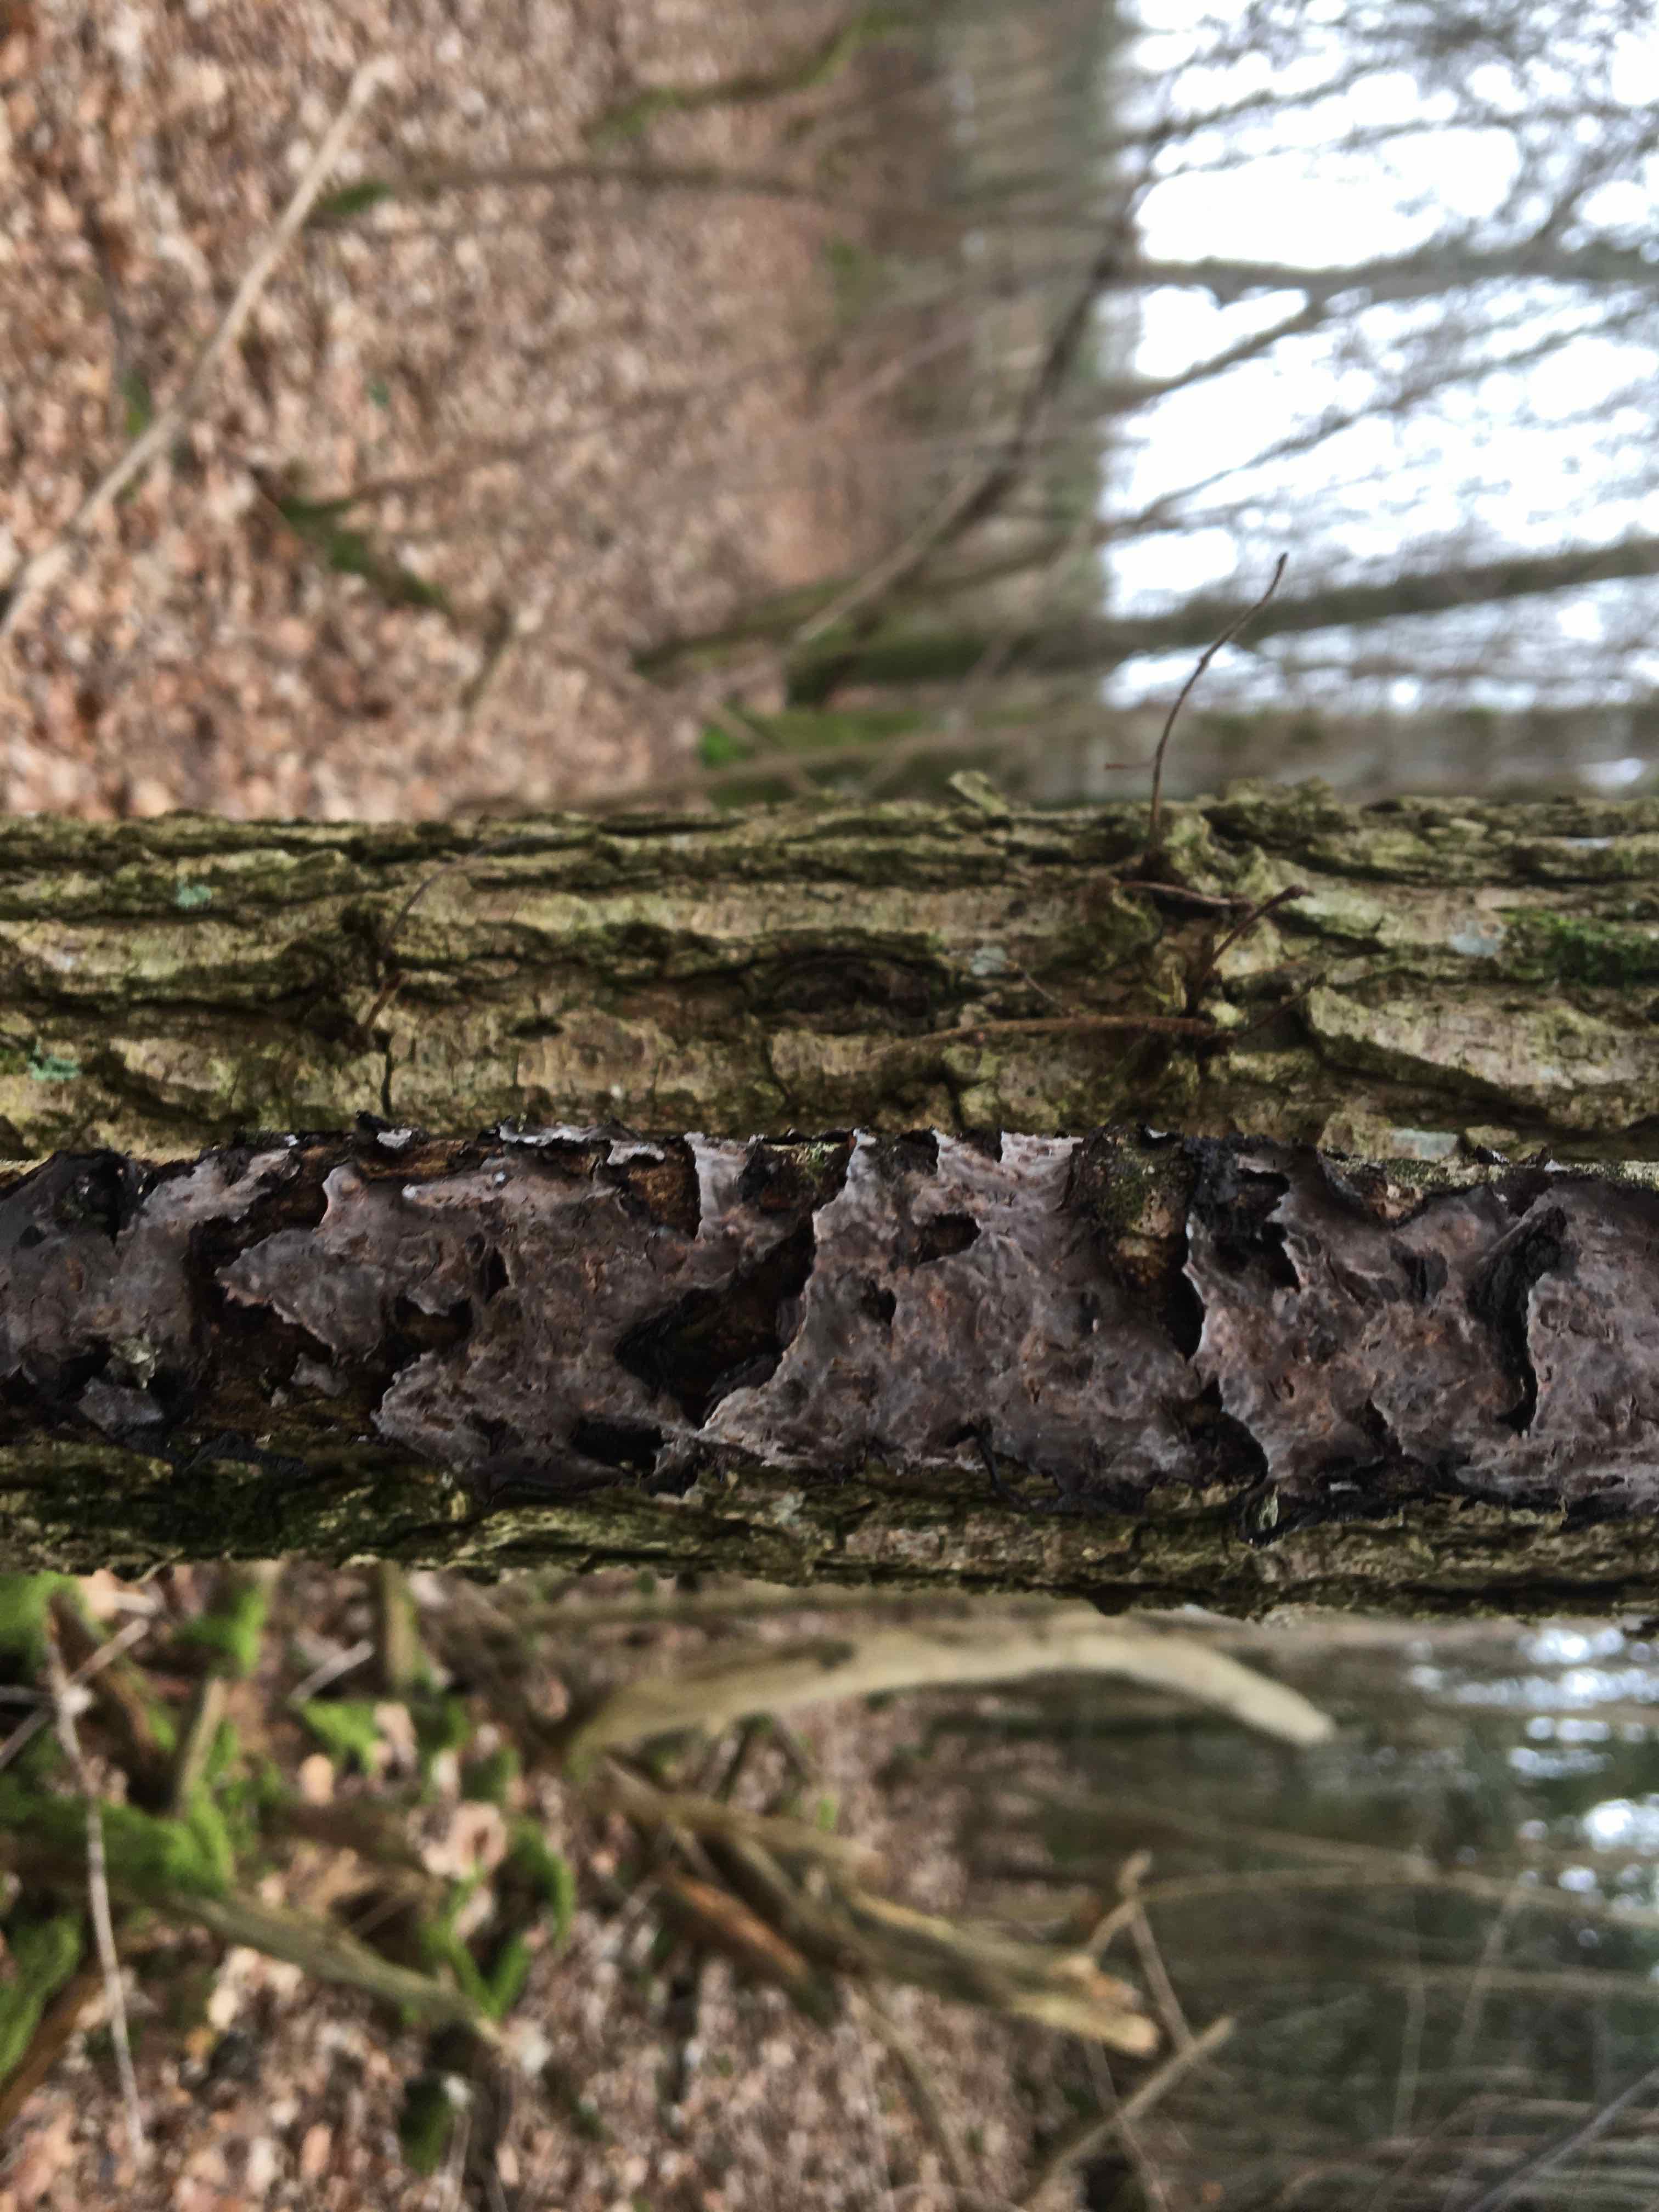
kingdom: Fungi
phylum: Basidiomycota
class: Agaricomycetes
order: Russulales
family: Peniophoraceae
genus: Peniophora
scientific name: Peniophora quercina
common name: ege-voksskind
